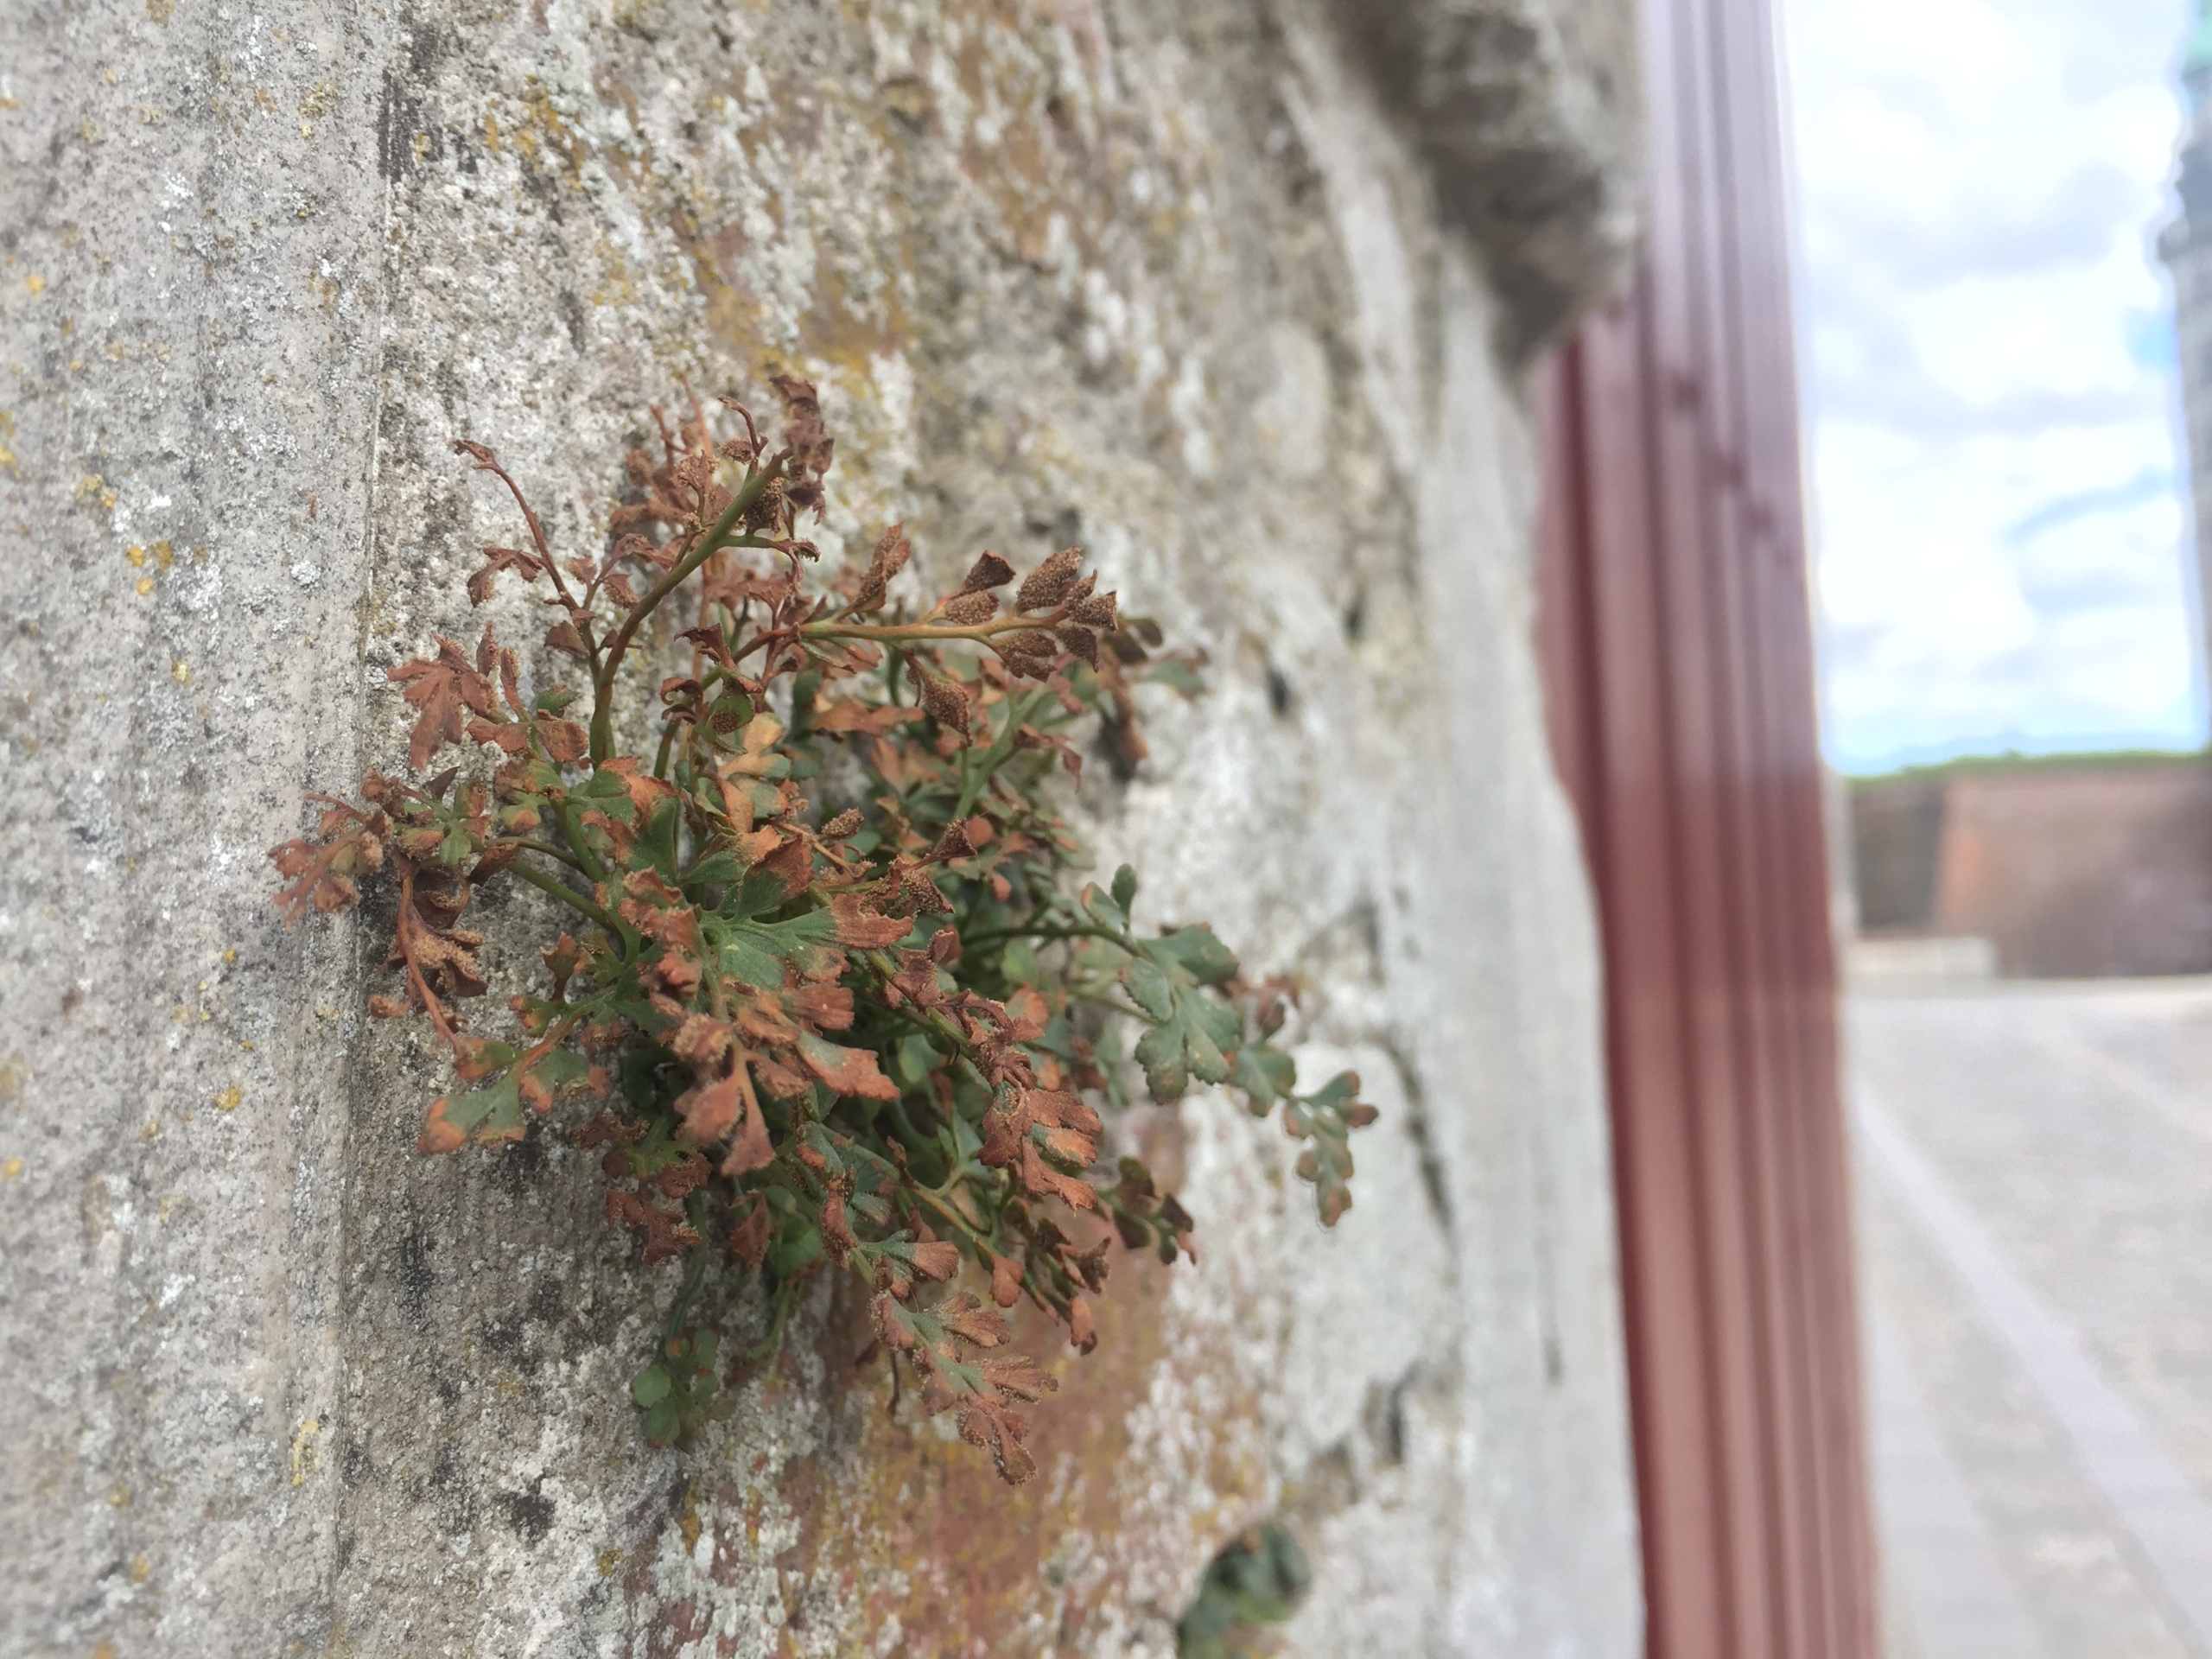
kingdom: Plantae
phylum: Tracheophyta
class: Polypodiopsida
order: Polypodiales
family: Aspleniaceae
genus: Asplenium
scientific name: Asplenium ruta-muraria
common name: Murrude
